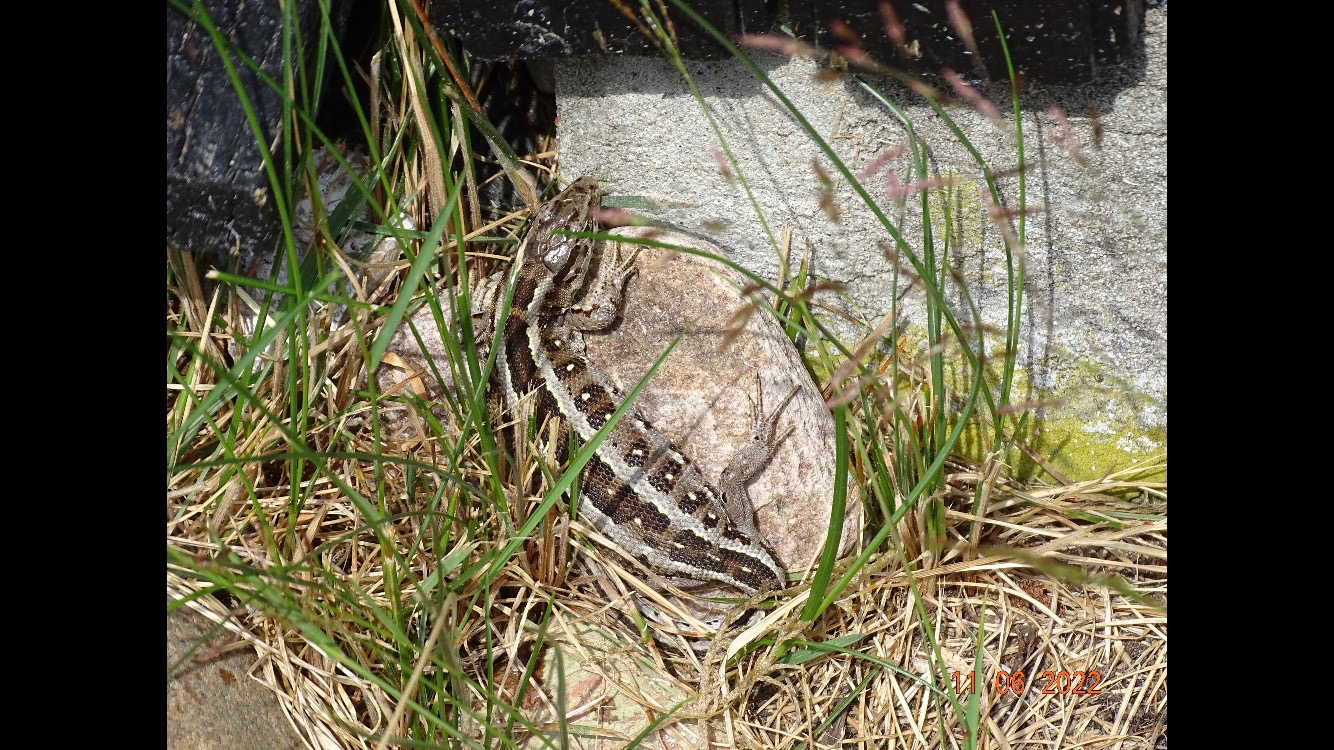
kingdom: Animalia
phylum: Chordata
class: Squamata
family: Lacertidae
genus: Lacerta
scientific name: Lacerta agilis
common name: Markfirben
